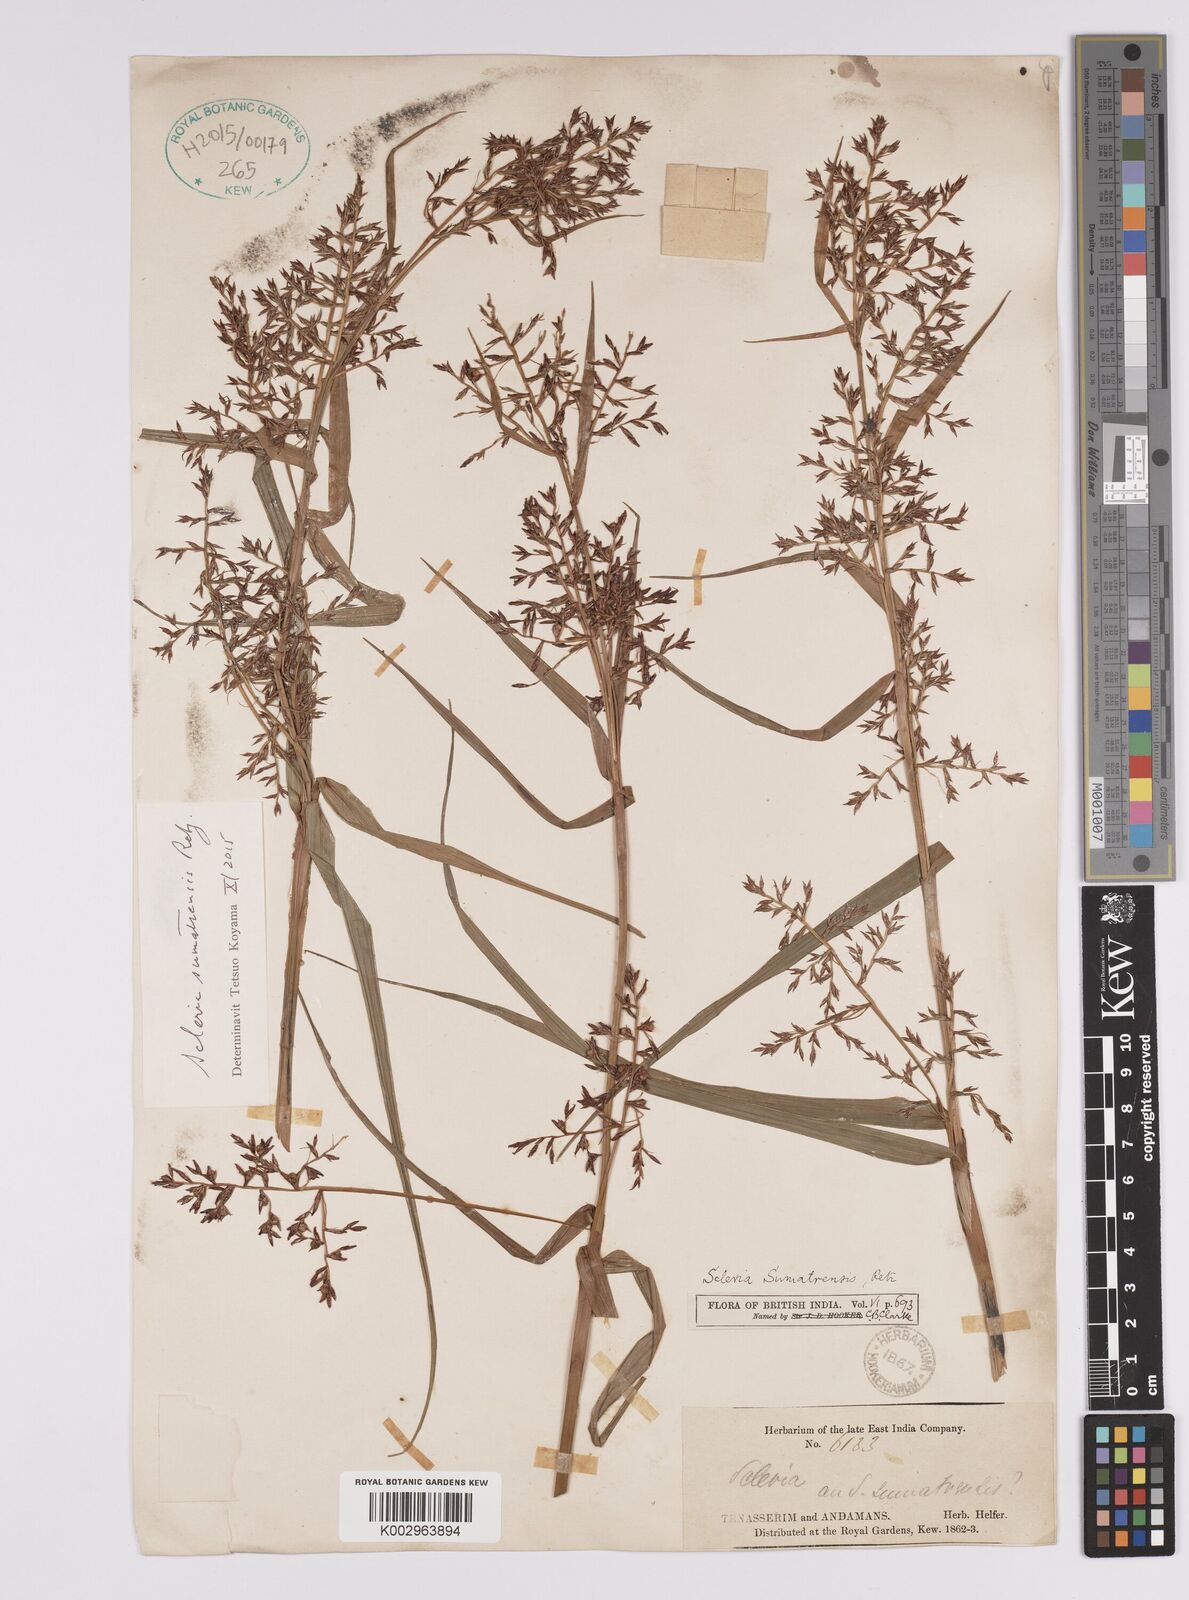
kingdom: Plantae
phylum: Tracheophyta
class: Liliopsida
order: Poales
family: Cyperaceae
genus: Scleria
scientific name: Scleria sumatrensis
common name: Sumatran scleria
